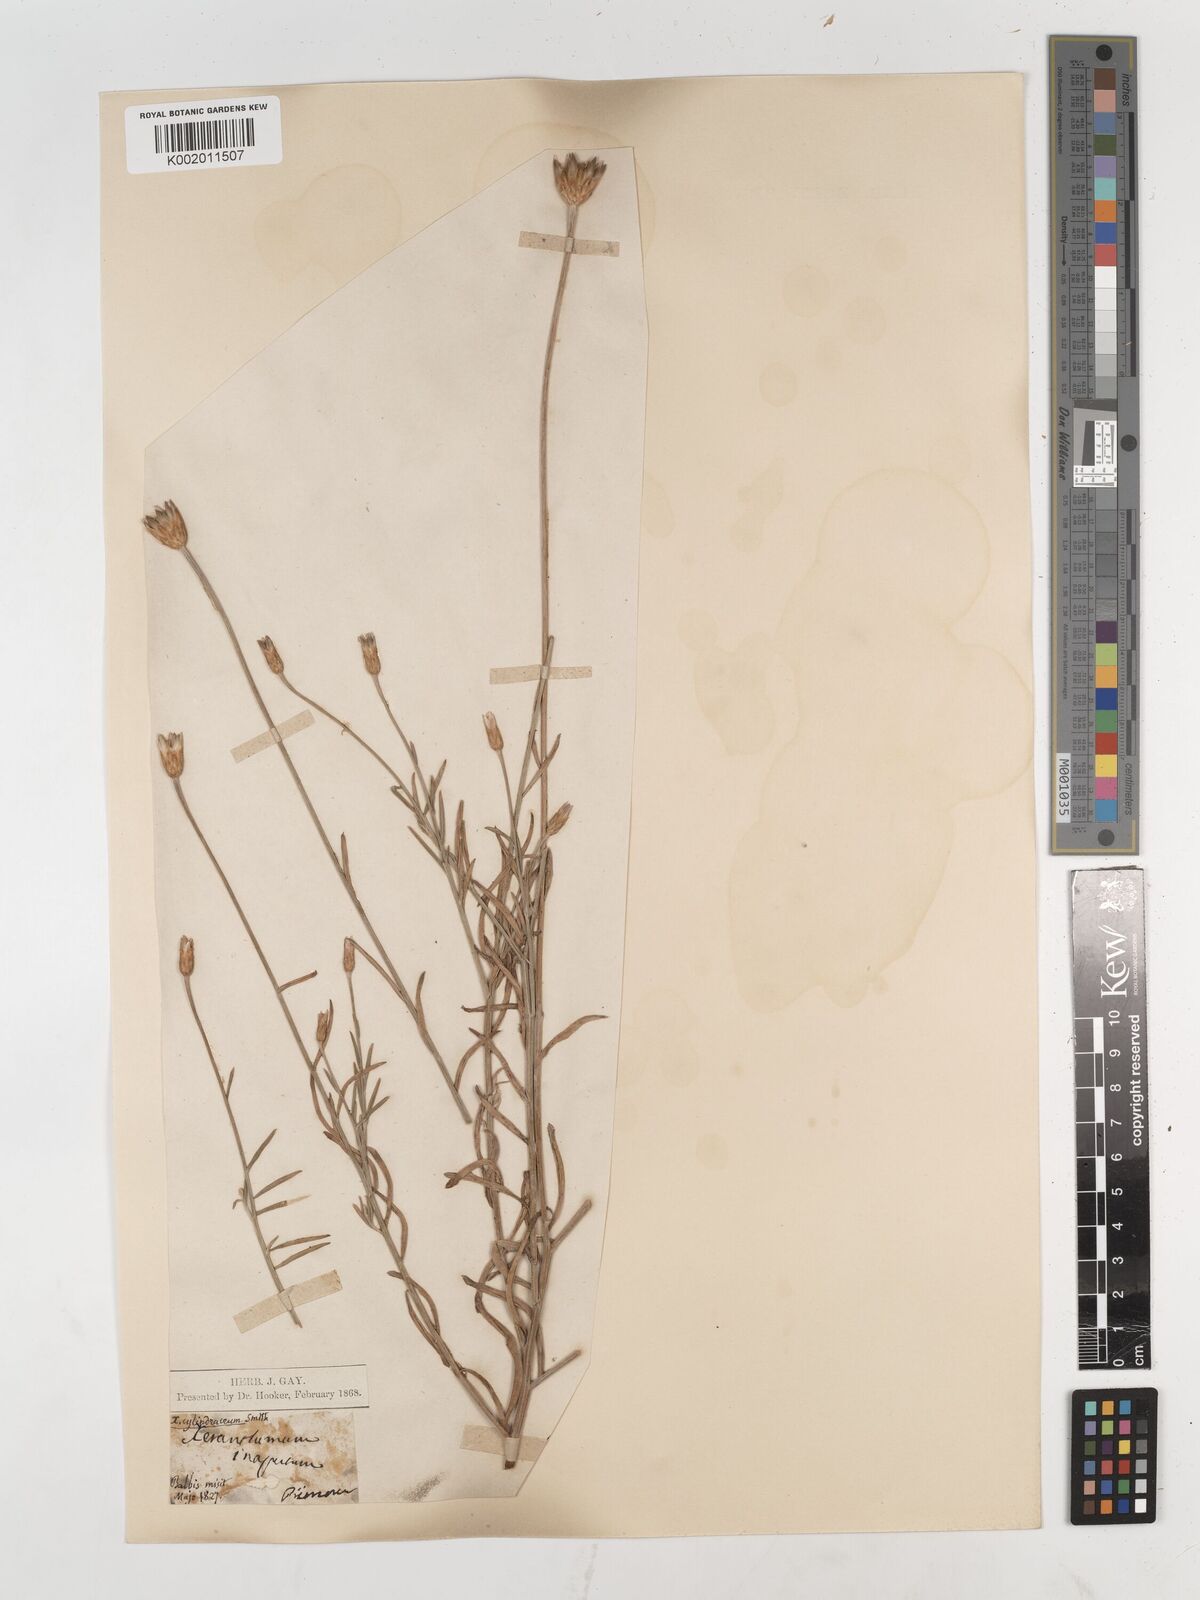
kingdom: Plantae
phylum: Tracheophyta
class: Magnoliopsida
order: Asterales
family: Asteraceae
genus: Xeranthemum
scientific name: Xeranthemum cylindraceum
